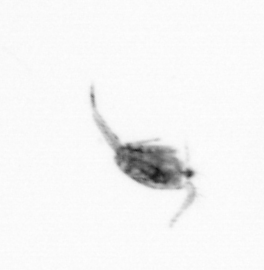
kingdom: Animalia
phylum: Arthropoda
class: Copepoda
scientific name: Copepoda
